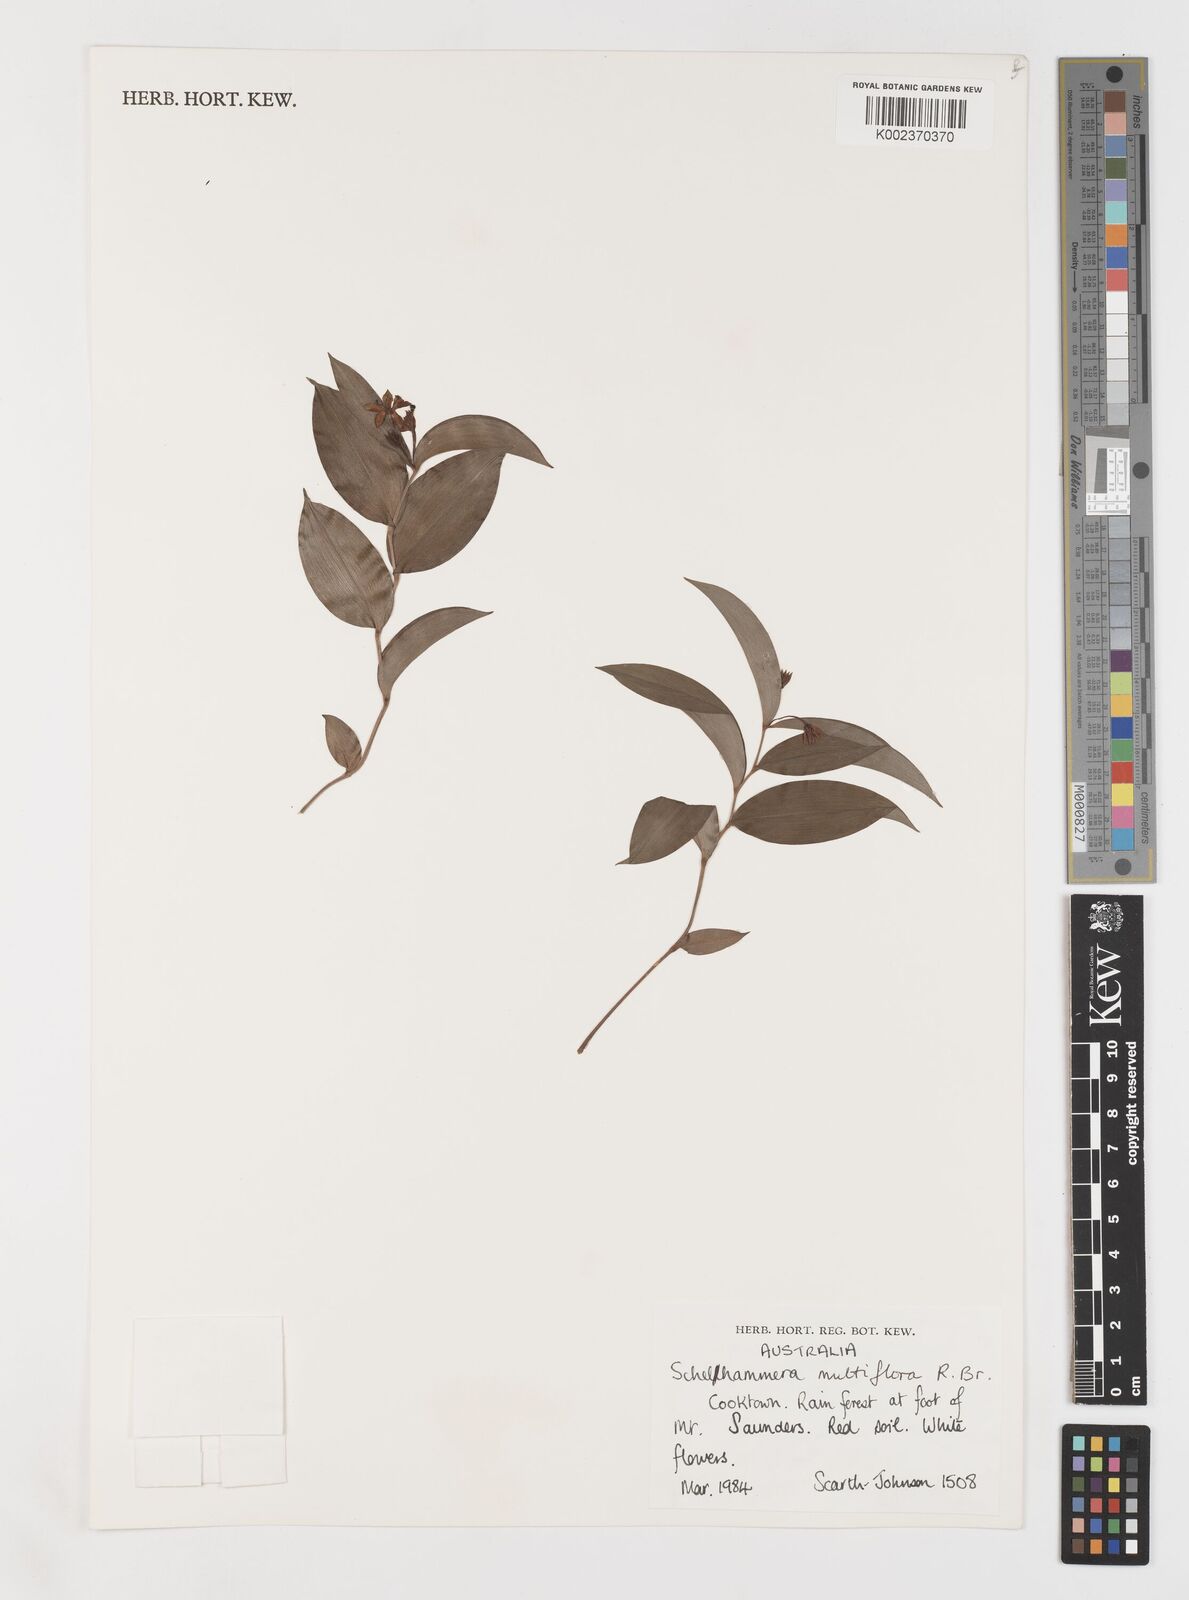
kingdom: Plantae
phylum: Tracheophyta
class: Liliopsida
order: Liliales
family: Colchicaceae
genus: Schelhammera
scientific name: Schelhammera multiflora
